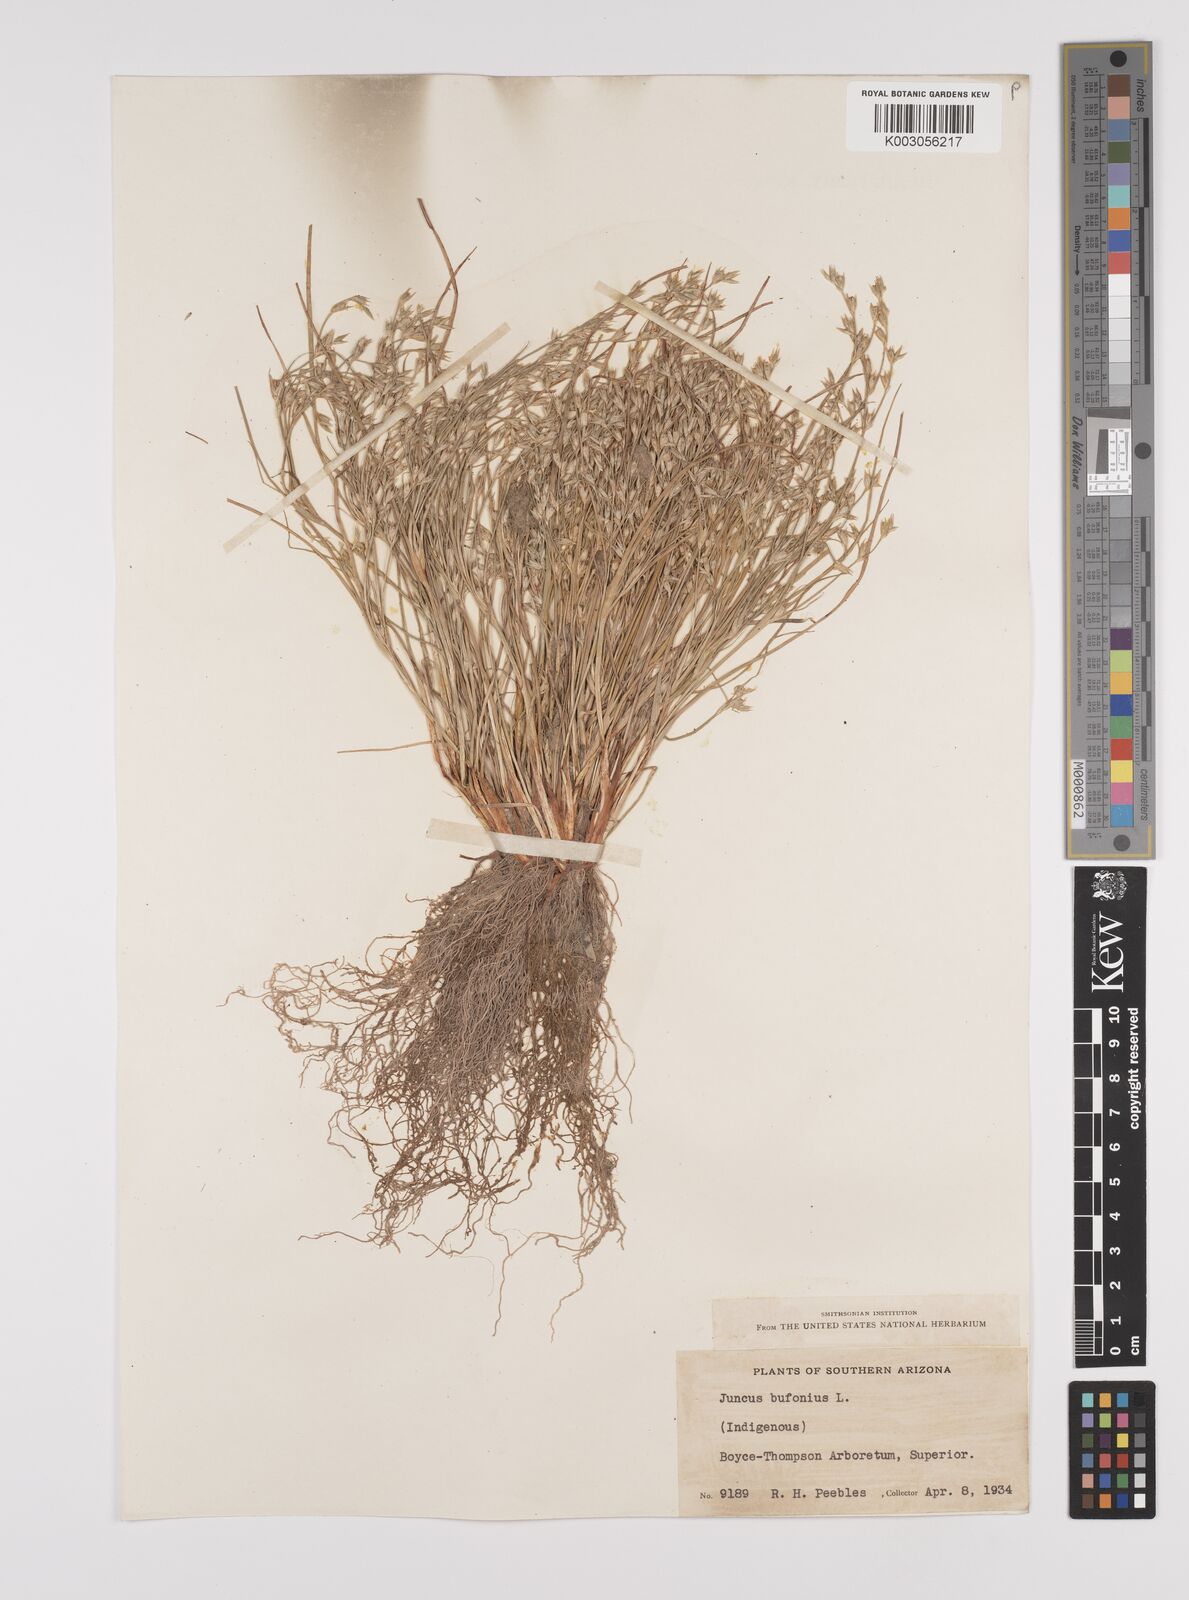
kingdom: Plantae
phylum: Tracheophyta
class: Liliopsida
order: Poales
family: Juncaceae
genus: Juncus
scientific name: Juncus bufonius
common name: Toad rush
